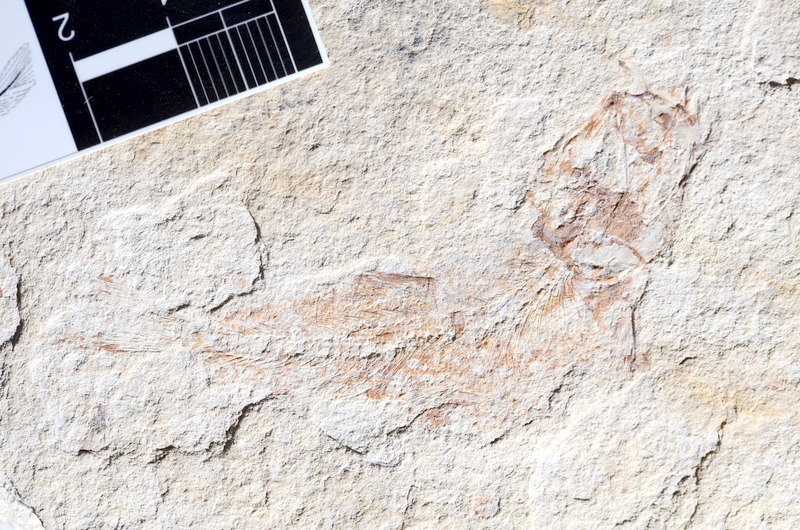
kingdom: Animalia
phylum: Chordata
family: Ascalaboidae
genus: Tharsis
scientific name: Tharsis dubius
